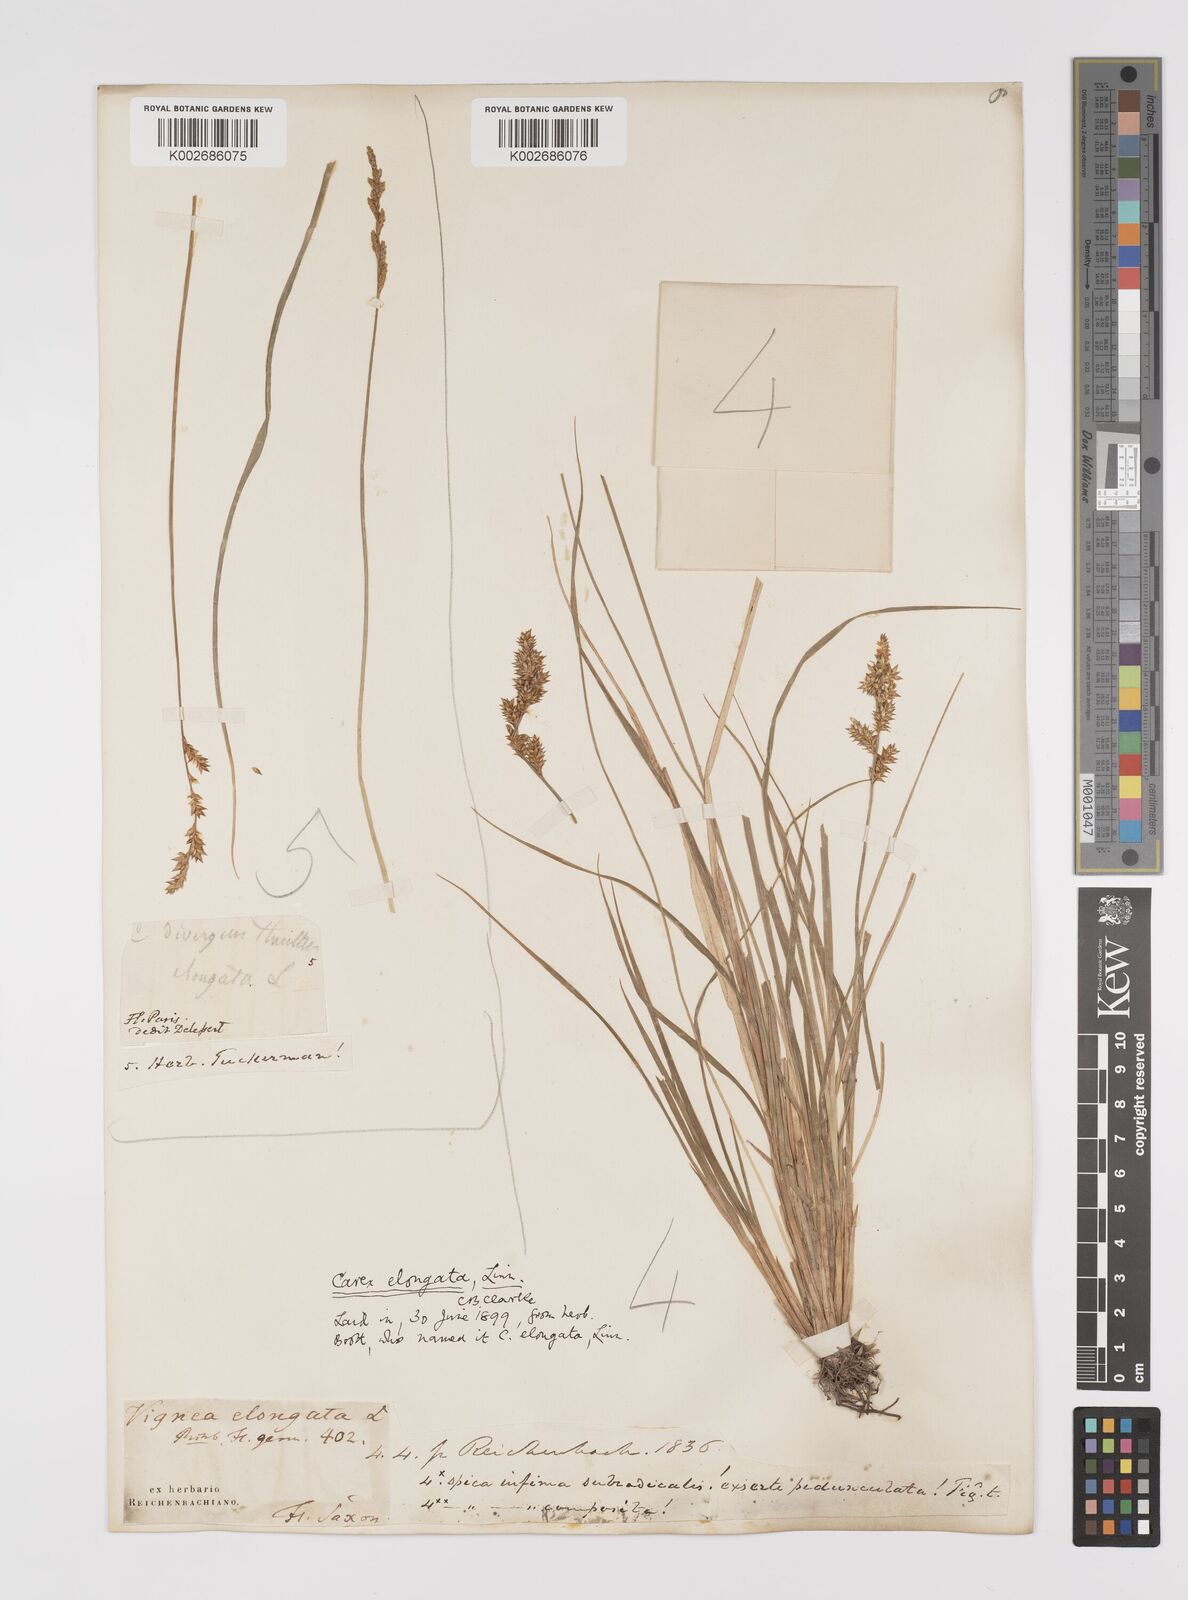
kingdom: Plantae
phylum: Tracheophyta
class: Liliopsida
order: Poales
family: Cyperaceae
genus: Carex
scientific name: Carex elongata
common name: Elongated sedge
